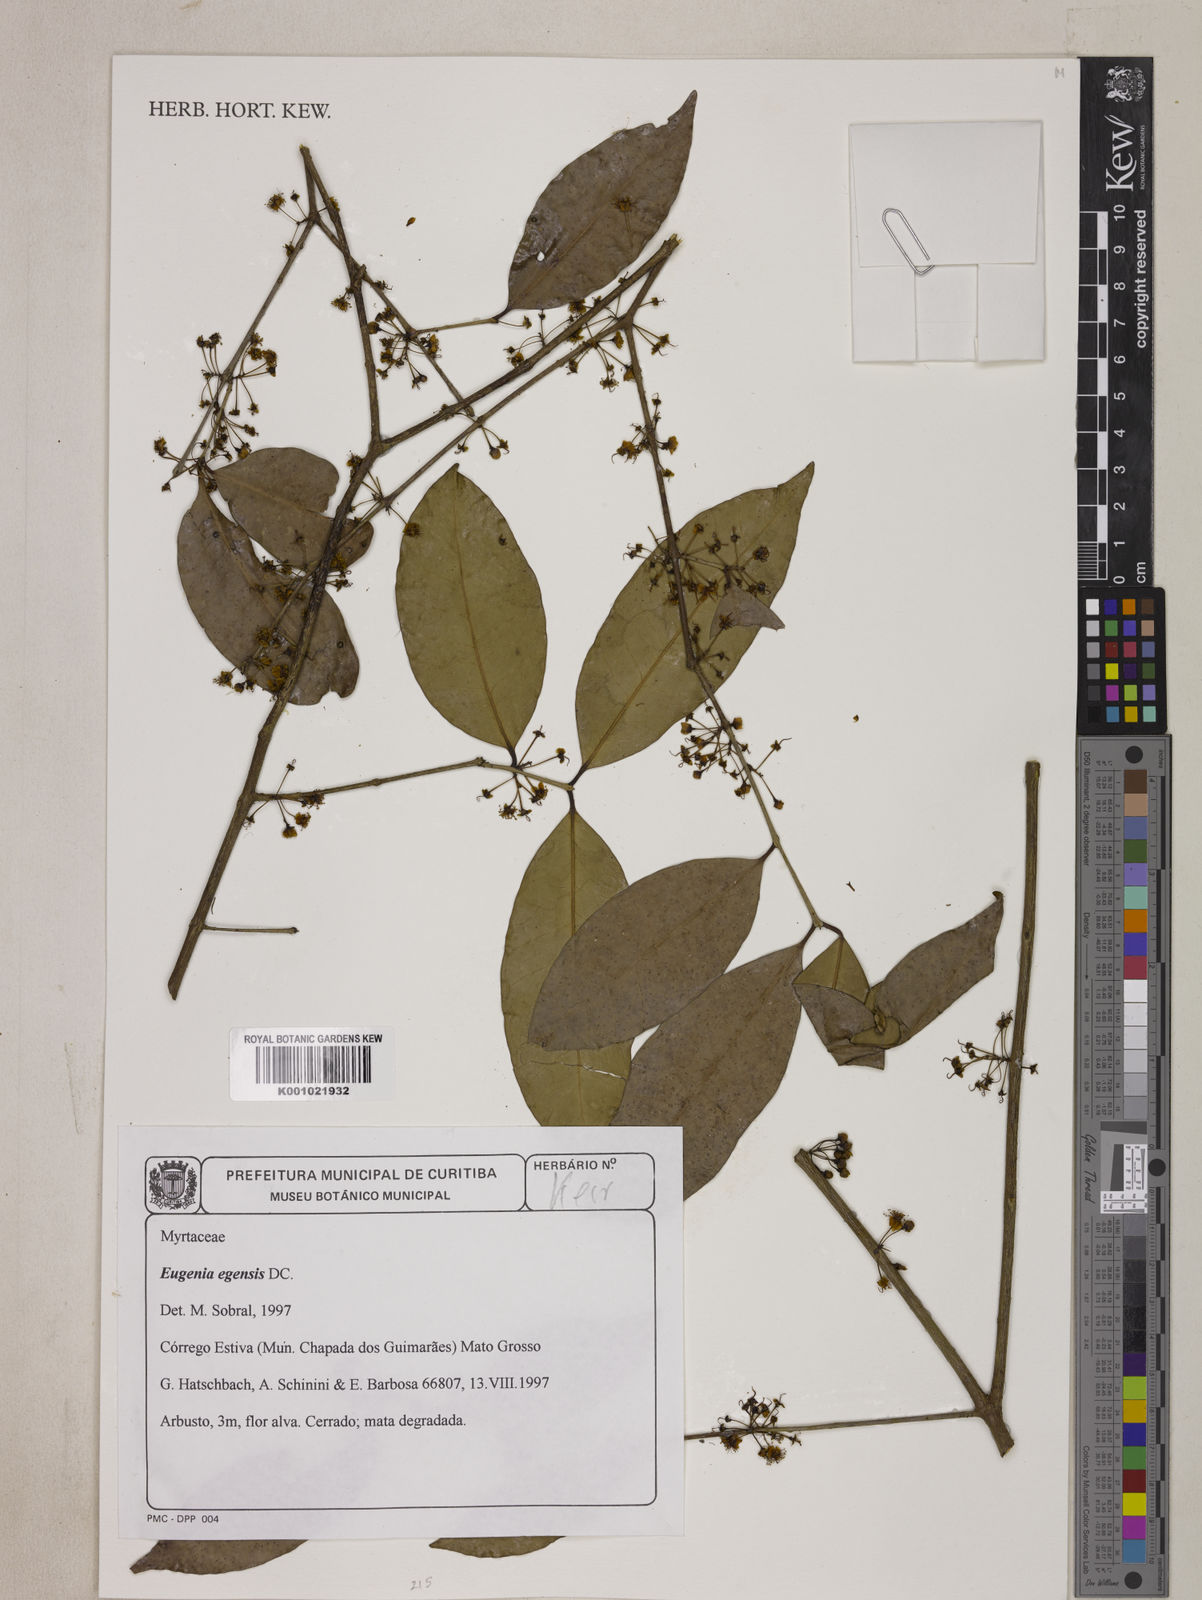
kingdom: Plantae
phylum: Tracheophyta
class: Magnoliopsida
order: Myrtales
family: Myrtaceae
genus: Eugenia
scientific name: Eugenia egensis
